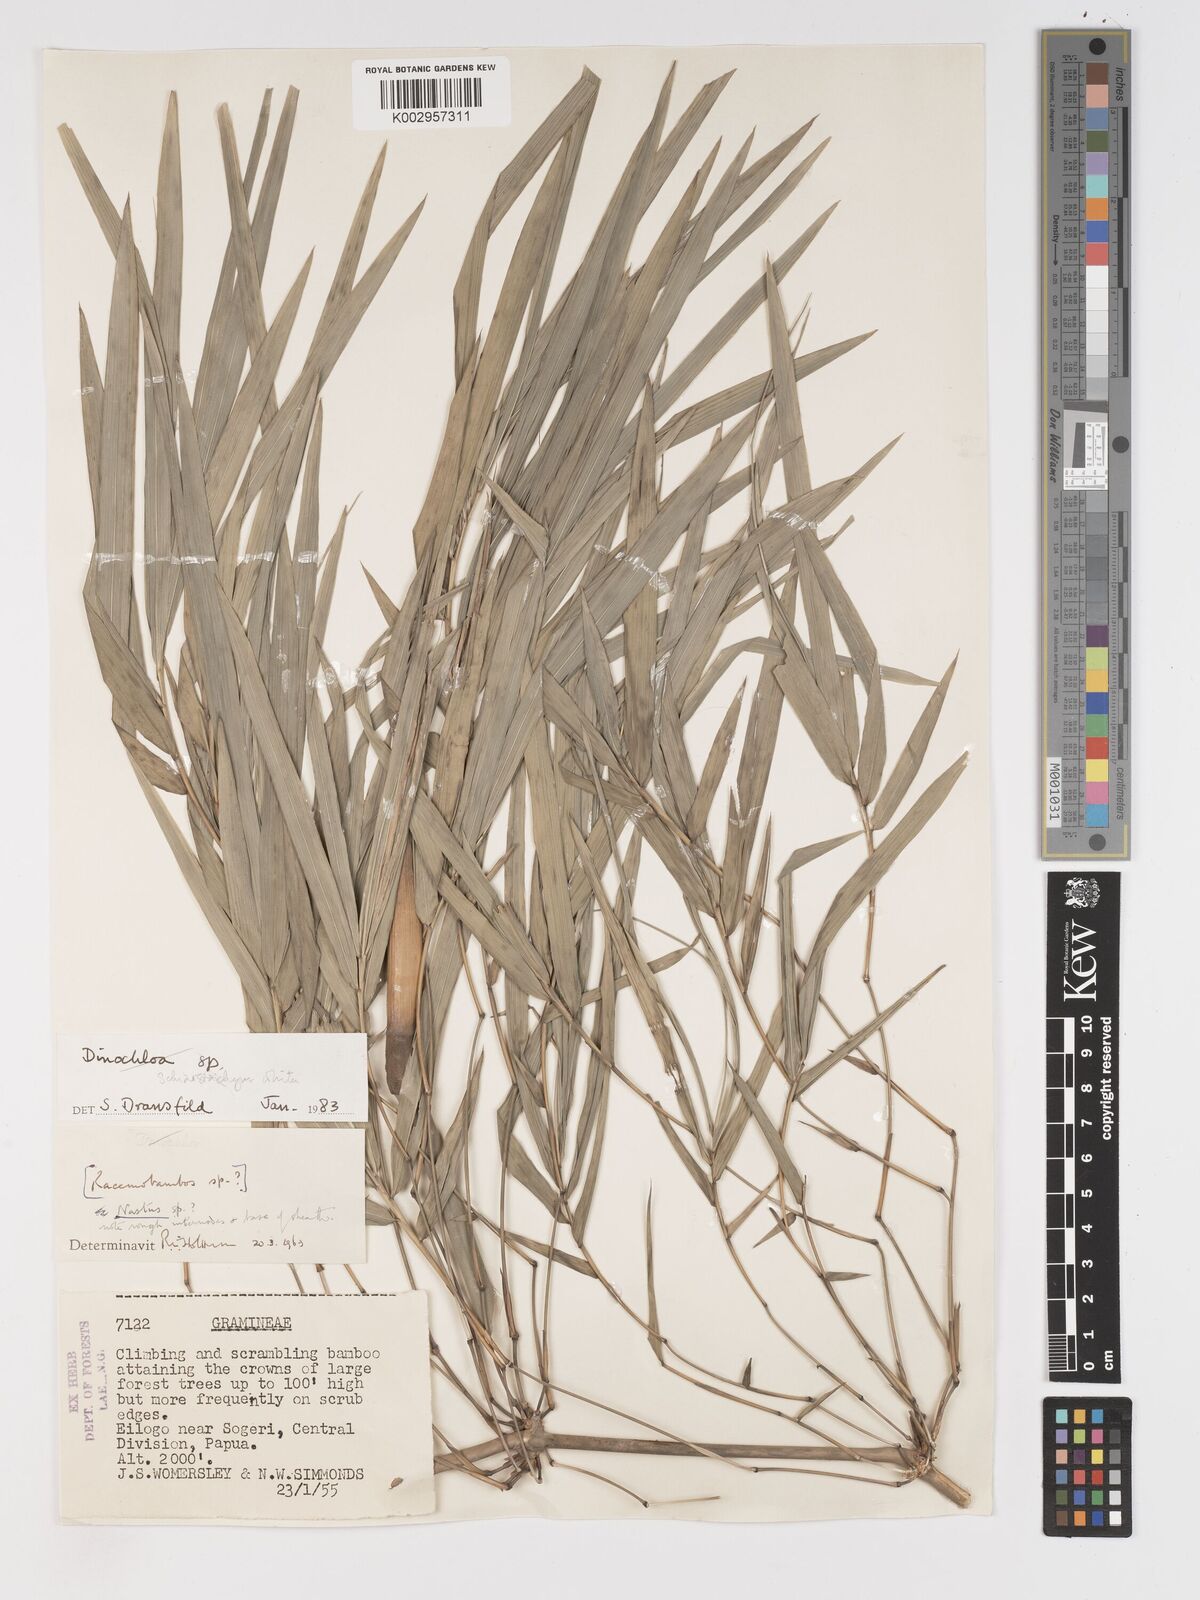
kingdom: Plantae
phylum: Tracheophyta
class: Liliopsida
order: Poales
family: Poaceae
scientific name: Poaceae
